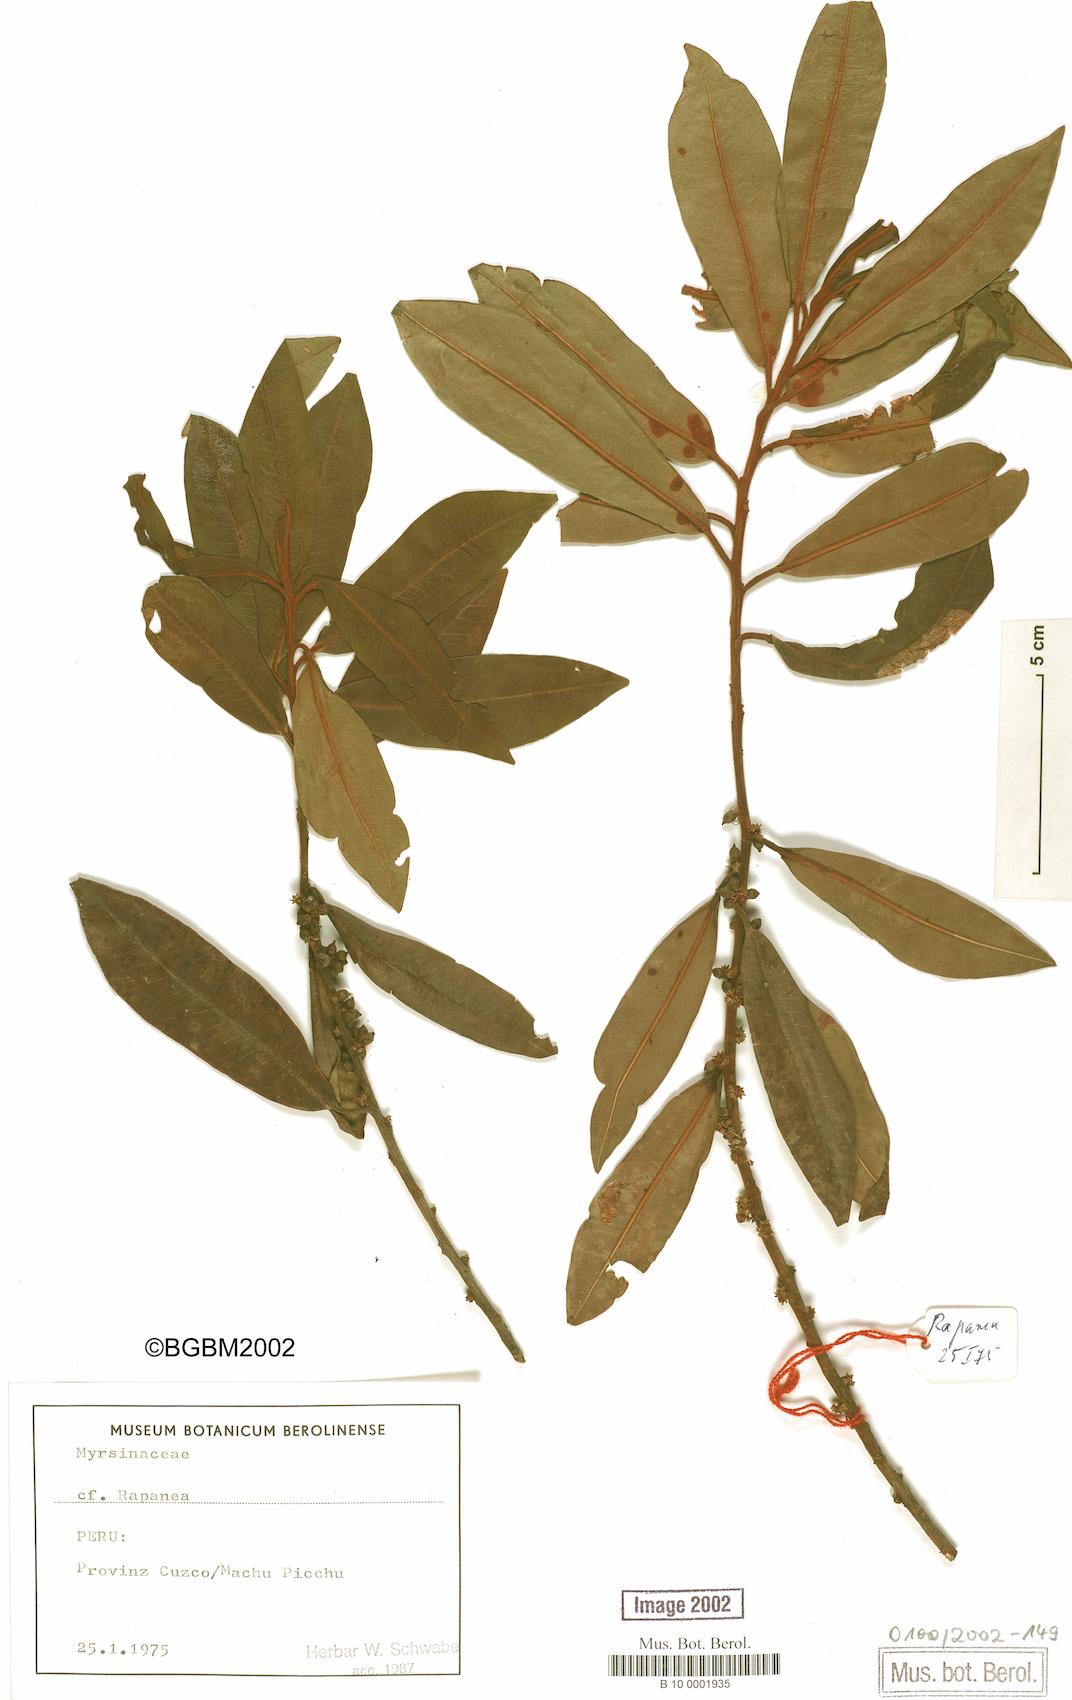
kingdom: Plantae
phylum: Tracheophyta
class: Magnoliopsida
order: Ericales
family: Primulaceae
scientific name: Primulaceae
